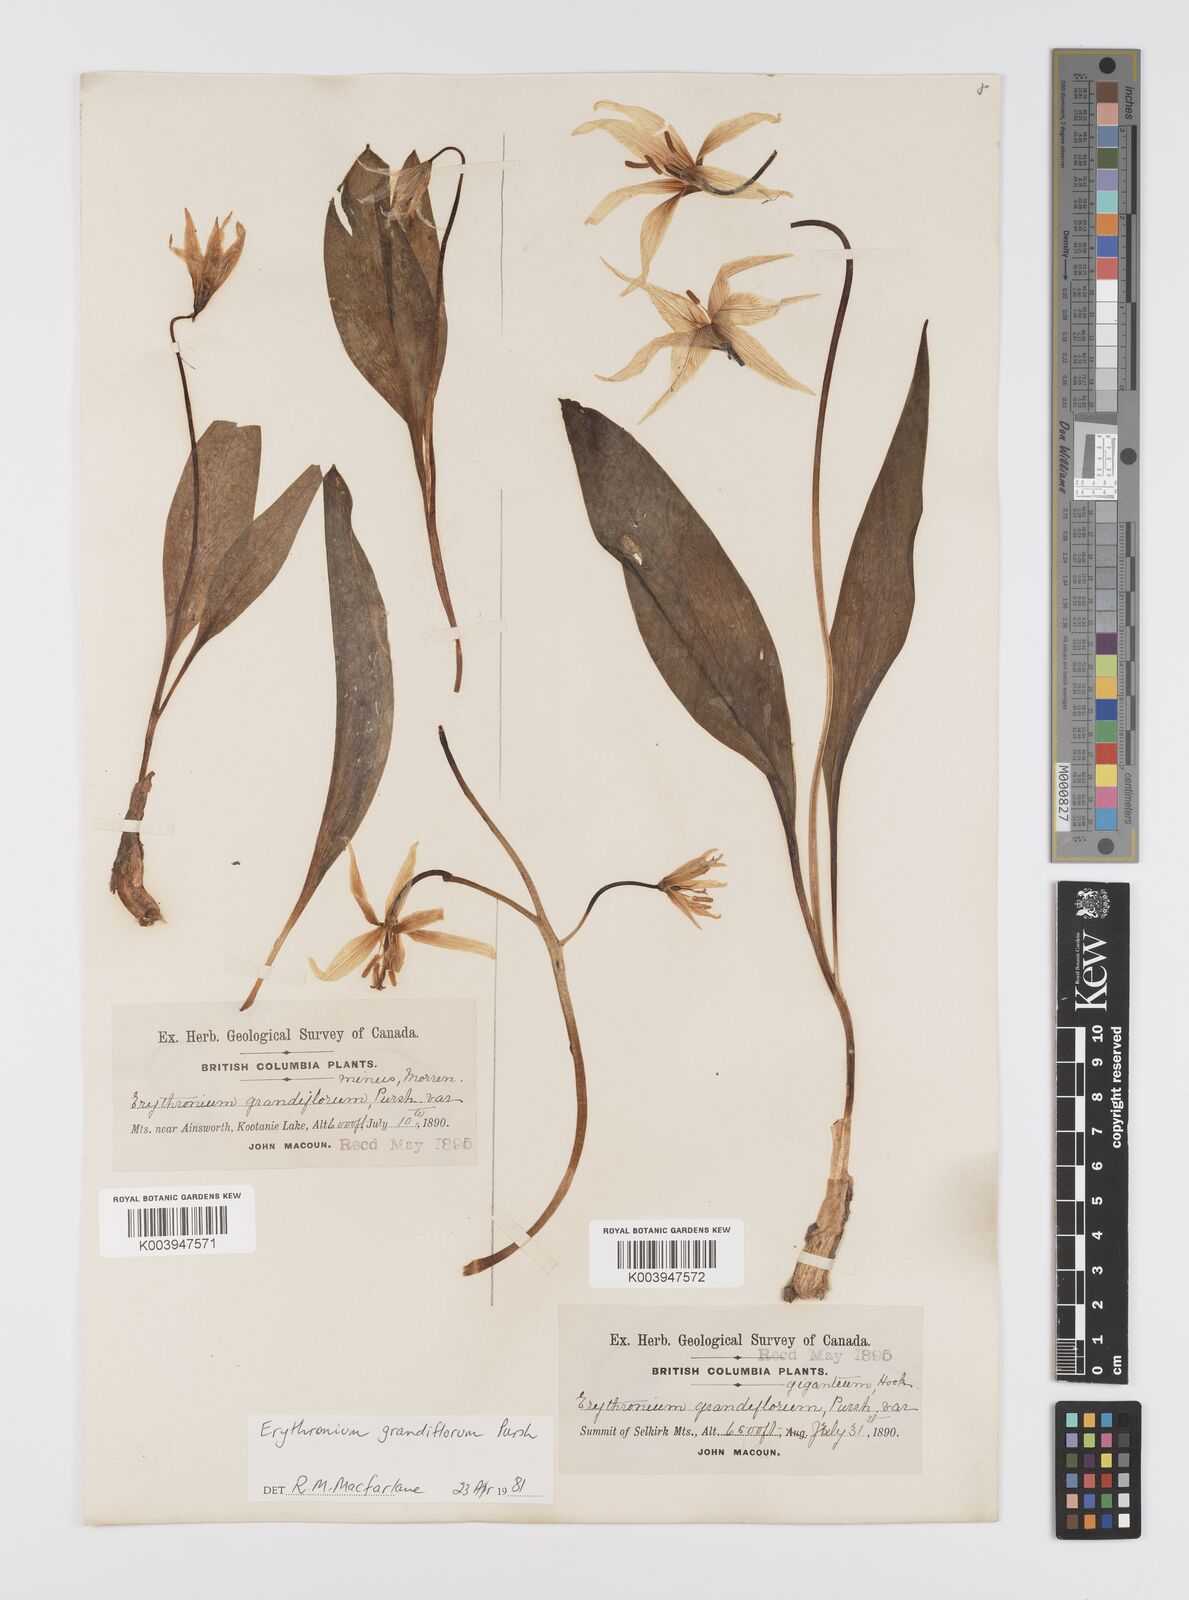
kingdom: Plantae
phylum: Tracheophyta
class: Liliopsida
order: Liliales
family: Liliaceae
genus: Erythronium
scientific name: Erythronium grandiflorum
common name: Avalanche-lily
